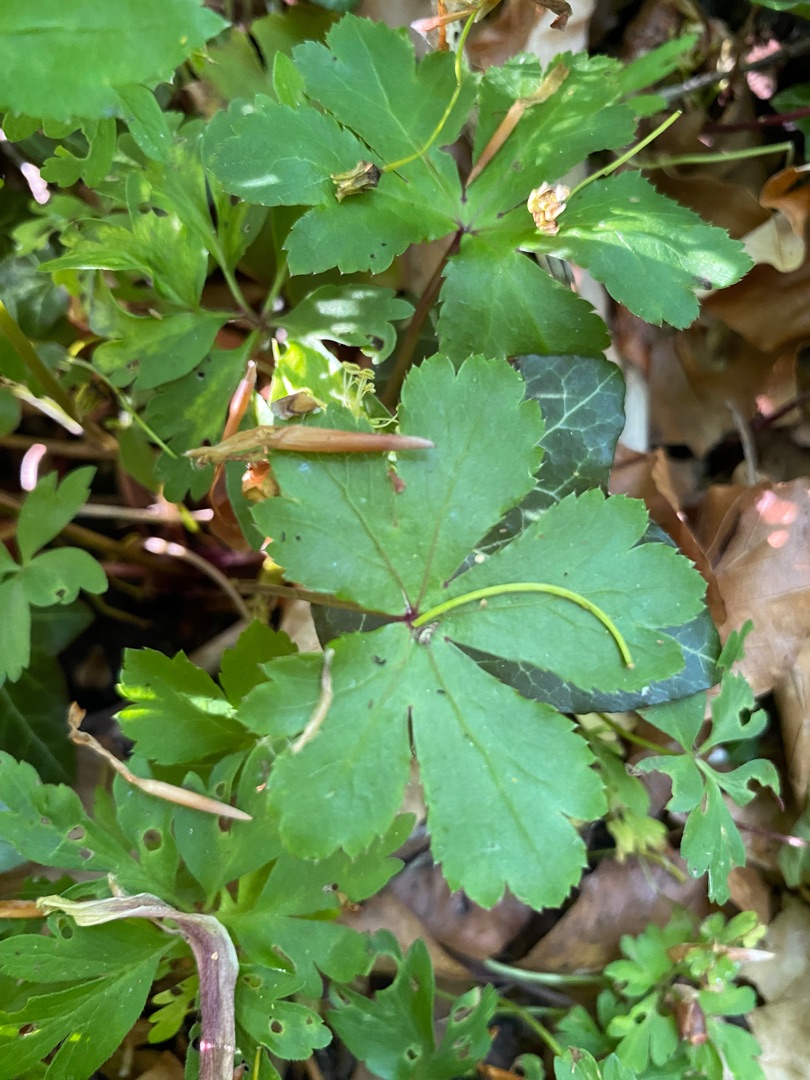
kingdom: Plantae
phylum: Tracheophyta
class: Magnoliopsida
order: Apiales
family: Apiaceae
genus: Sanicula
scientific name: Sanicula europaea
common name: Sanikel
